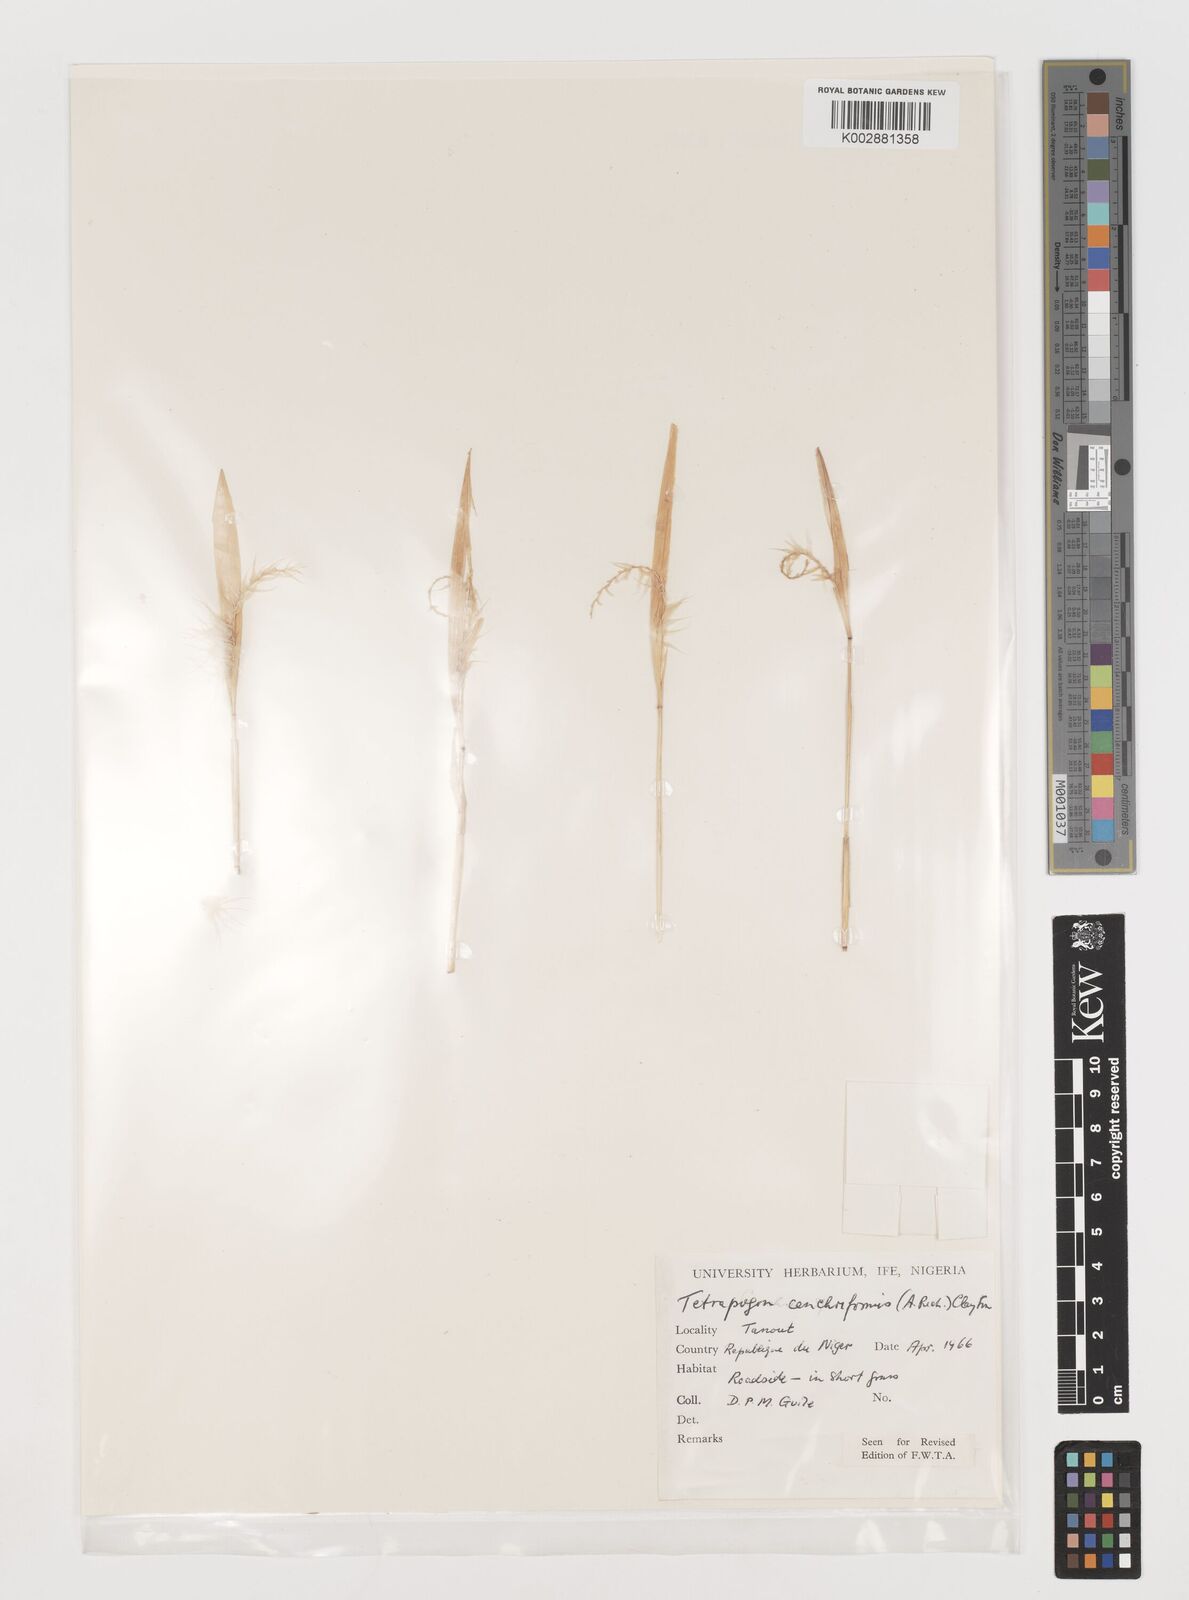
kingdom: Plantae
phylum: Tracheophyta
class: Liliopsida
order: Poales
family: Poaceae
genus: Tetrapogon
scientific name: Tetrapogon cenchriformis
